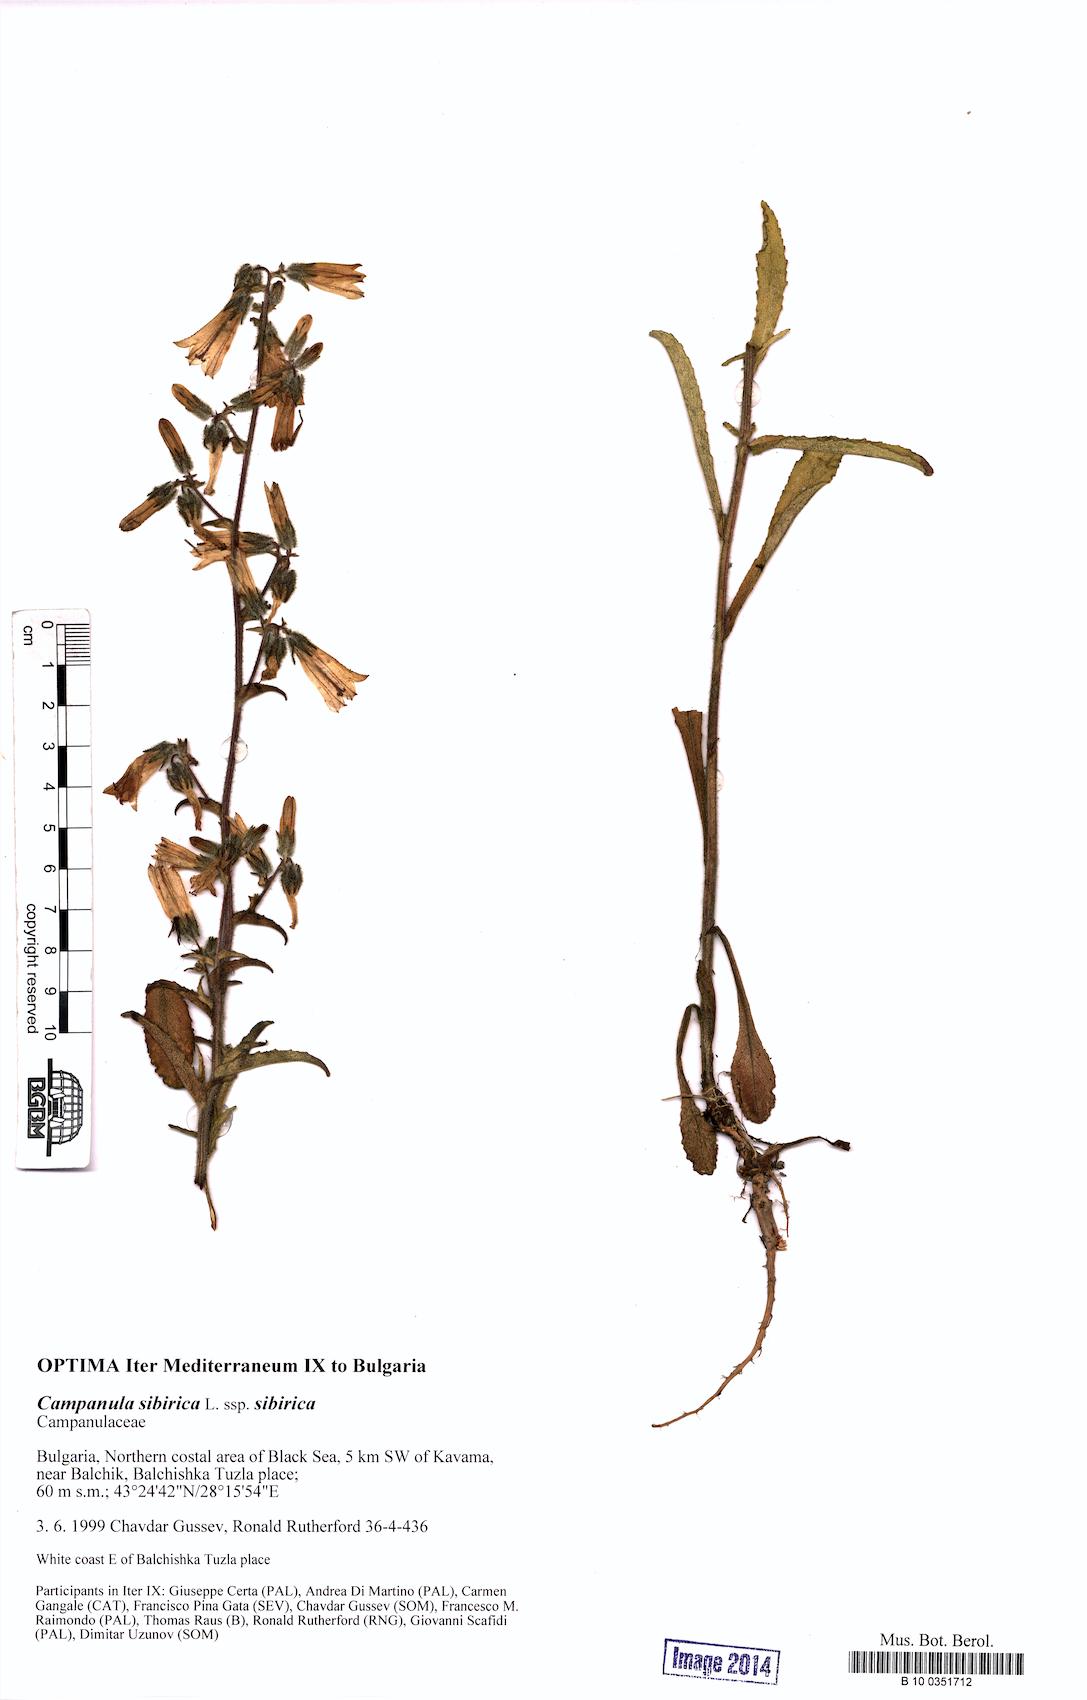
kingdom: Plantae
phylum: Tracheophyta
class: Magnoliopsida
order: Asterales
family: Campanulaceae
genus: Campanula
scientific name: Campanula sibirica
